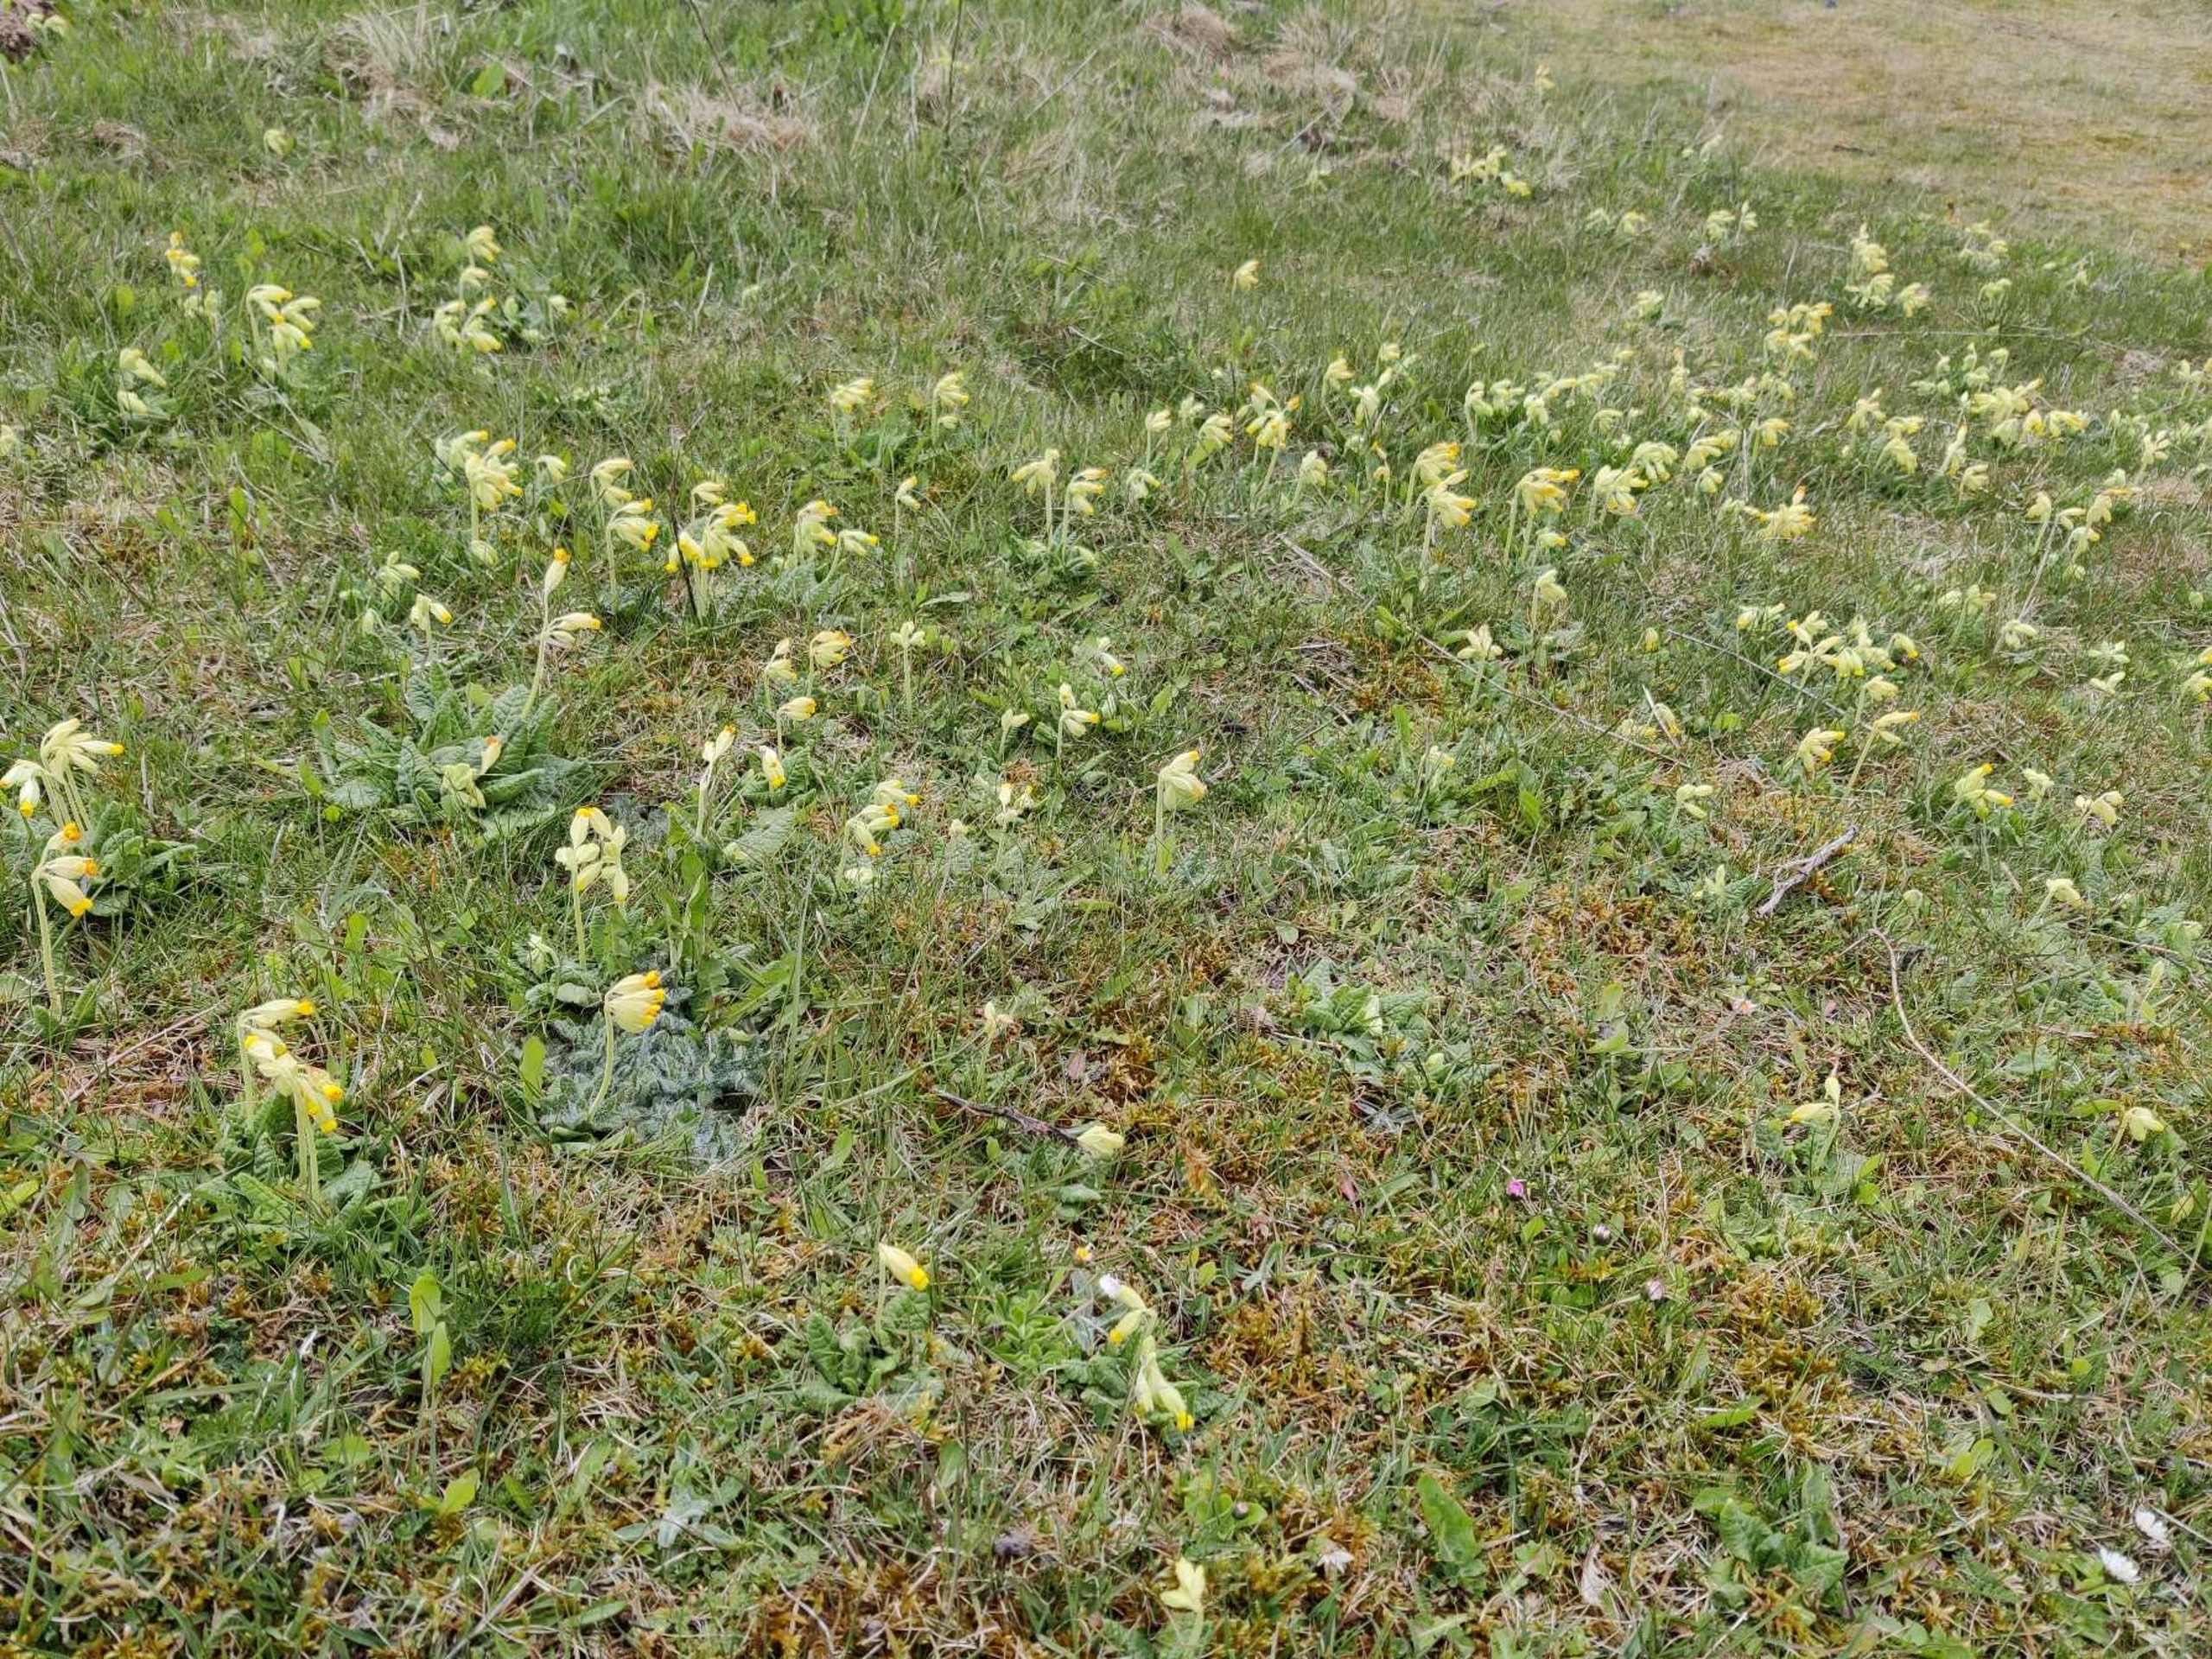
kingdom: Plantae
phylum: Tracheophyta
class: Magnoliopsida
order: Ericales
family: Primulaceae
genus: Primula
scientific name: Primula veris
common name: Hulkravet kodriver
